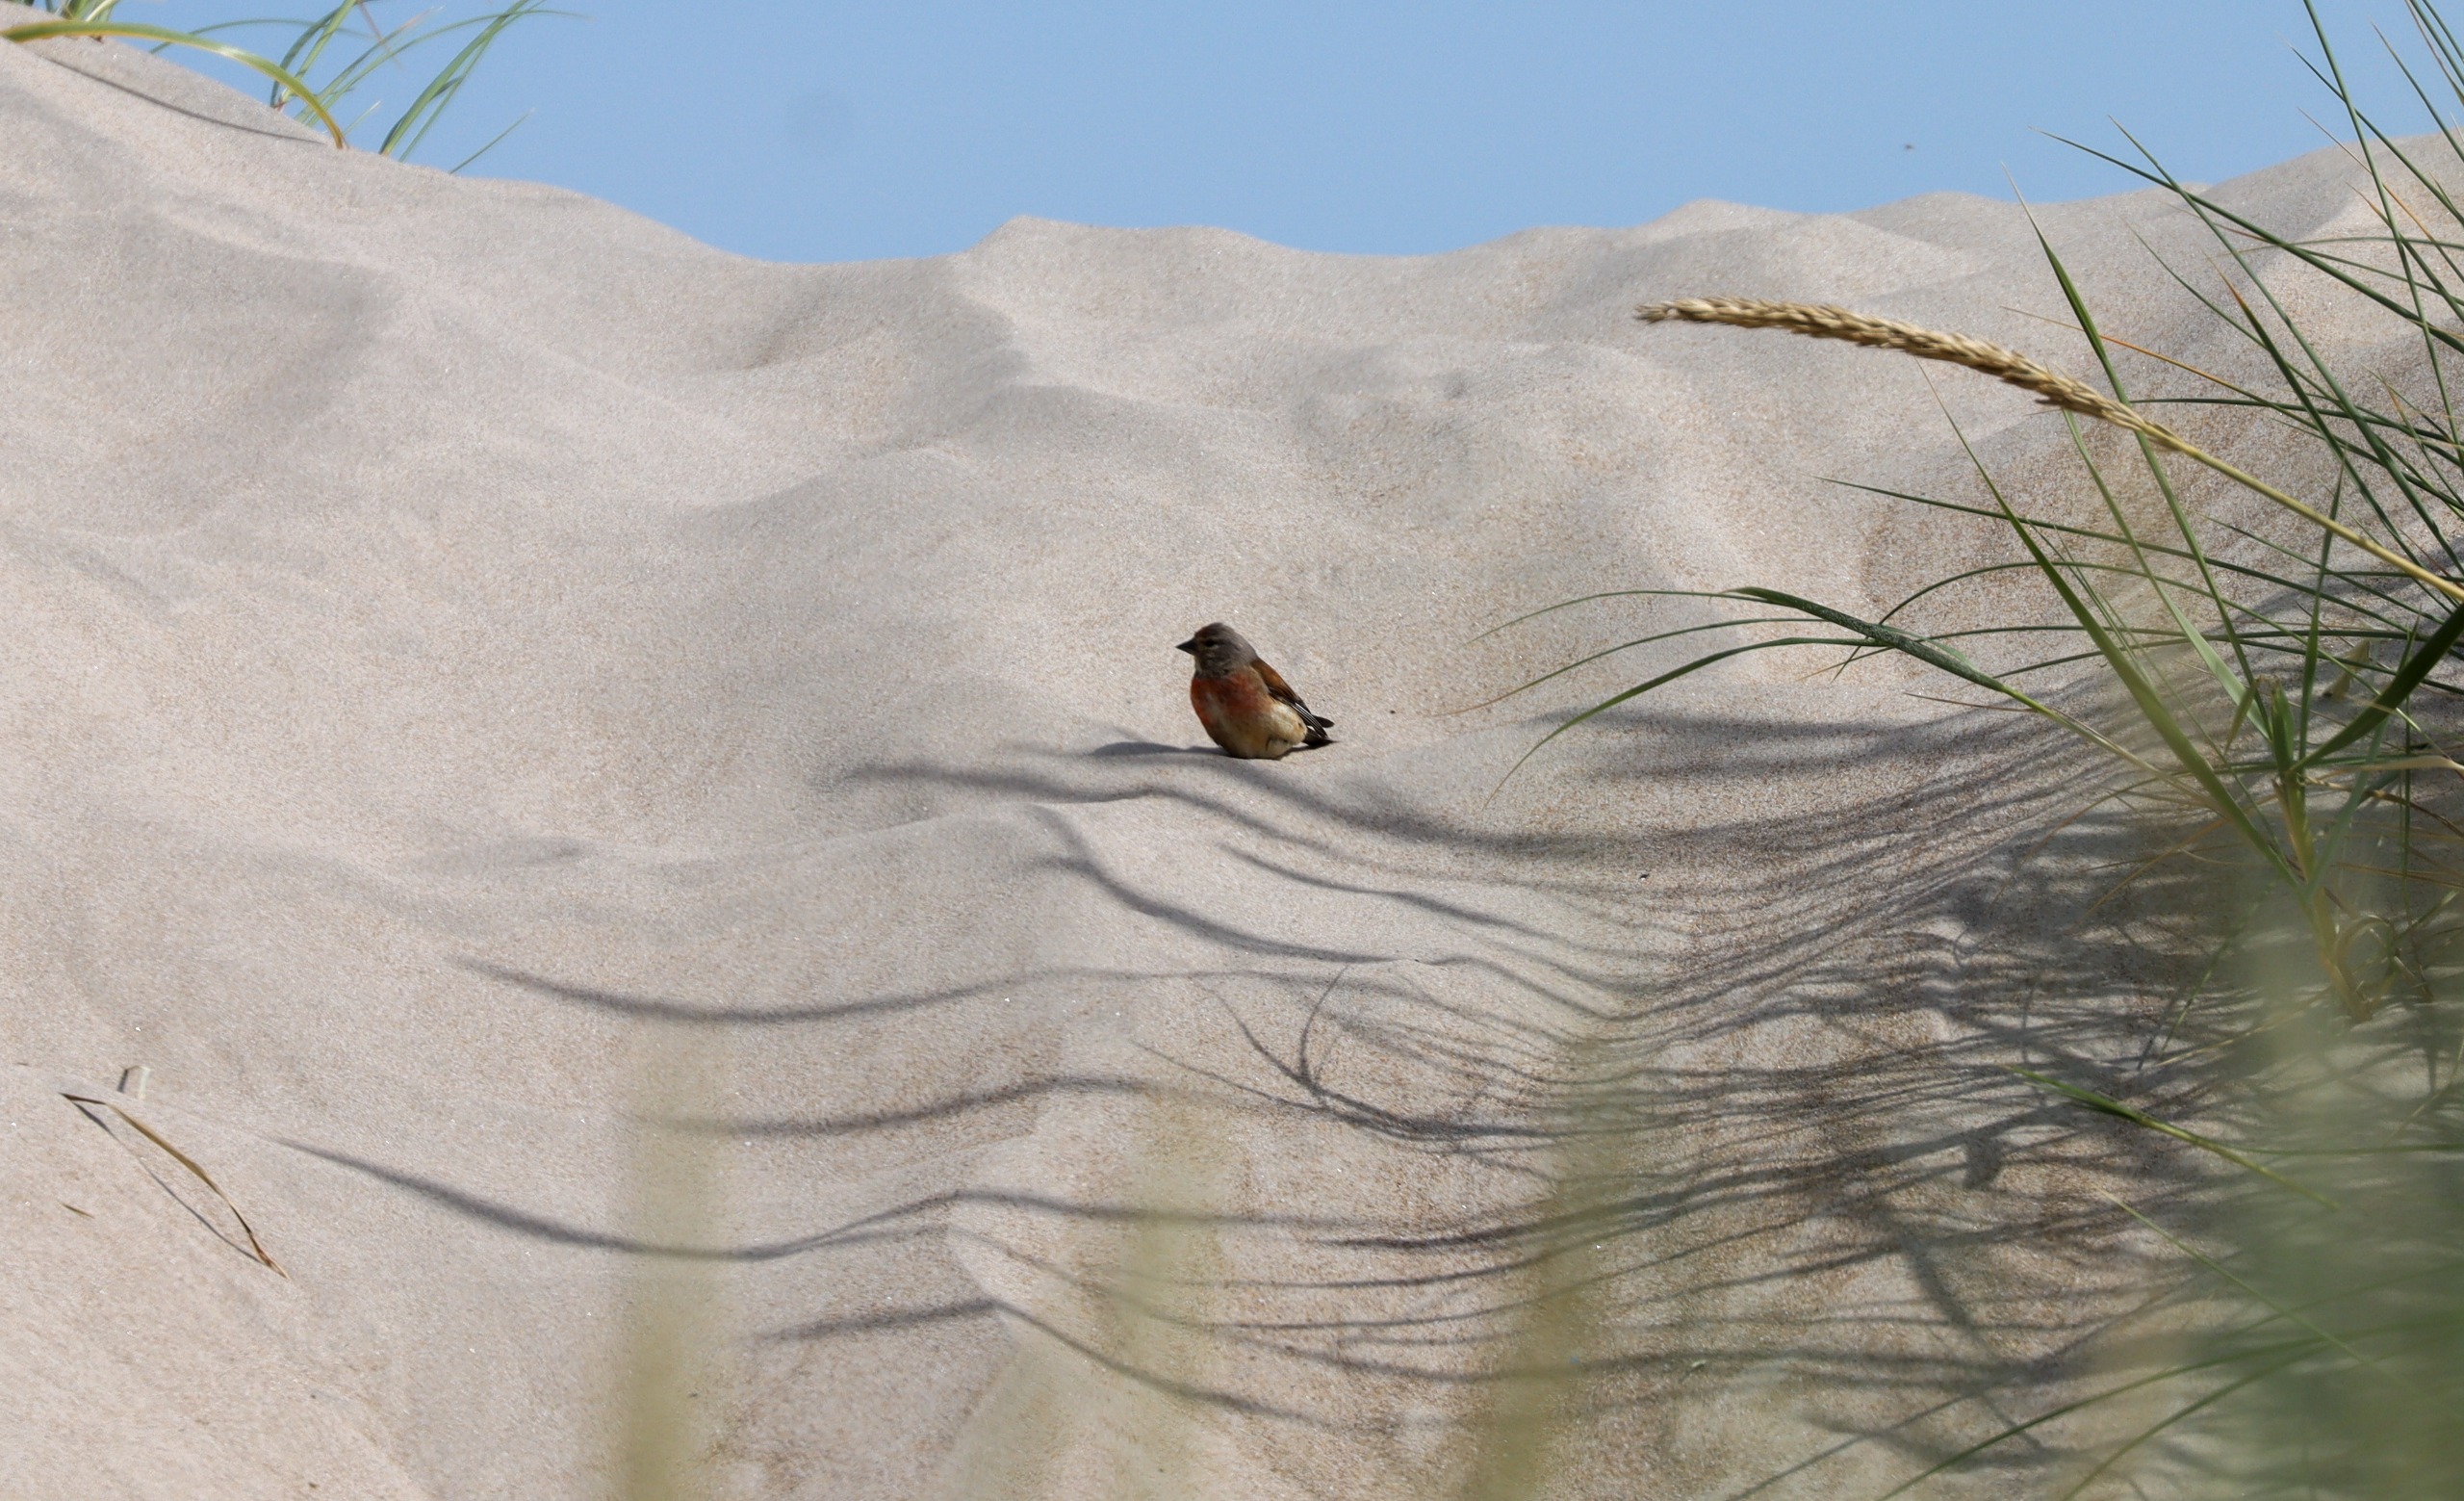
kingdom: Animalia
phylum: Chordata
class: Aves
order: Passeriformes
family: Fringillidae
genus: Linaria
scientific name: Linaria cannabina
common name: Tornirisk
